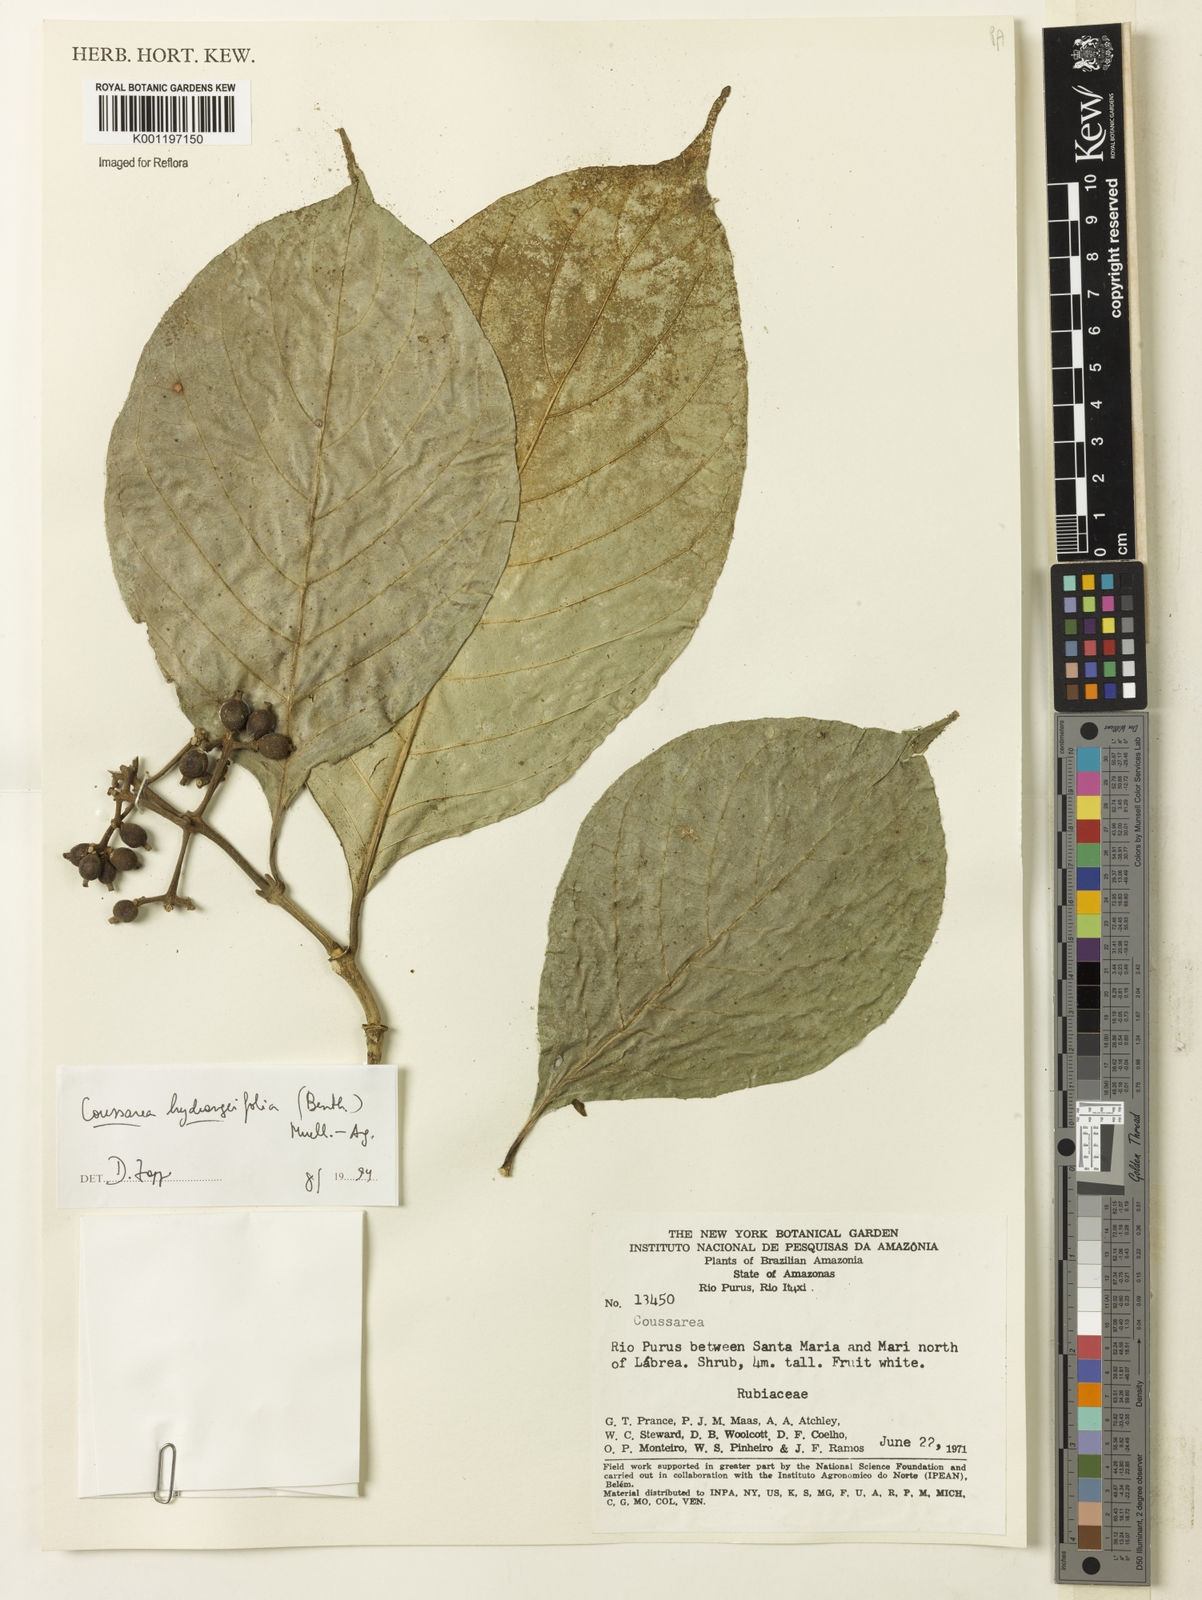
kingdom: Plantae
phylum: Tracheophyta
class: Magnoliopsida
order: Gentianales
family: Rubiaceae
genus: Coussarea
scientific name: Coussarea
